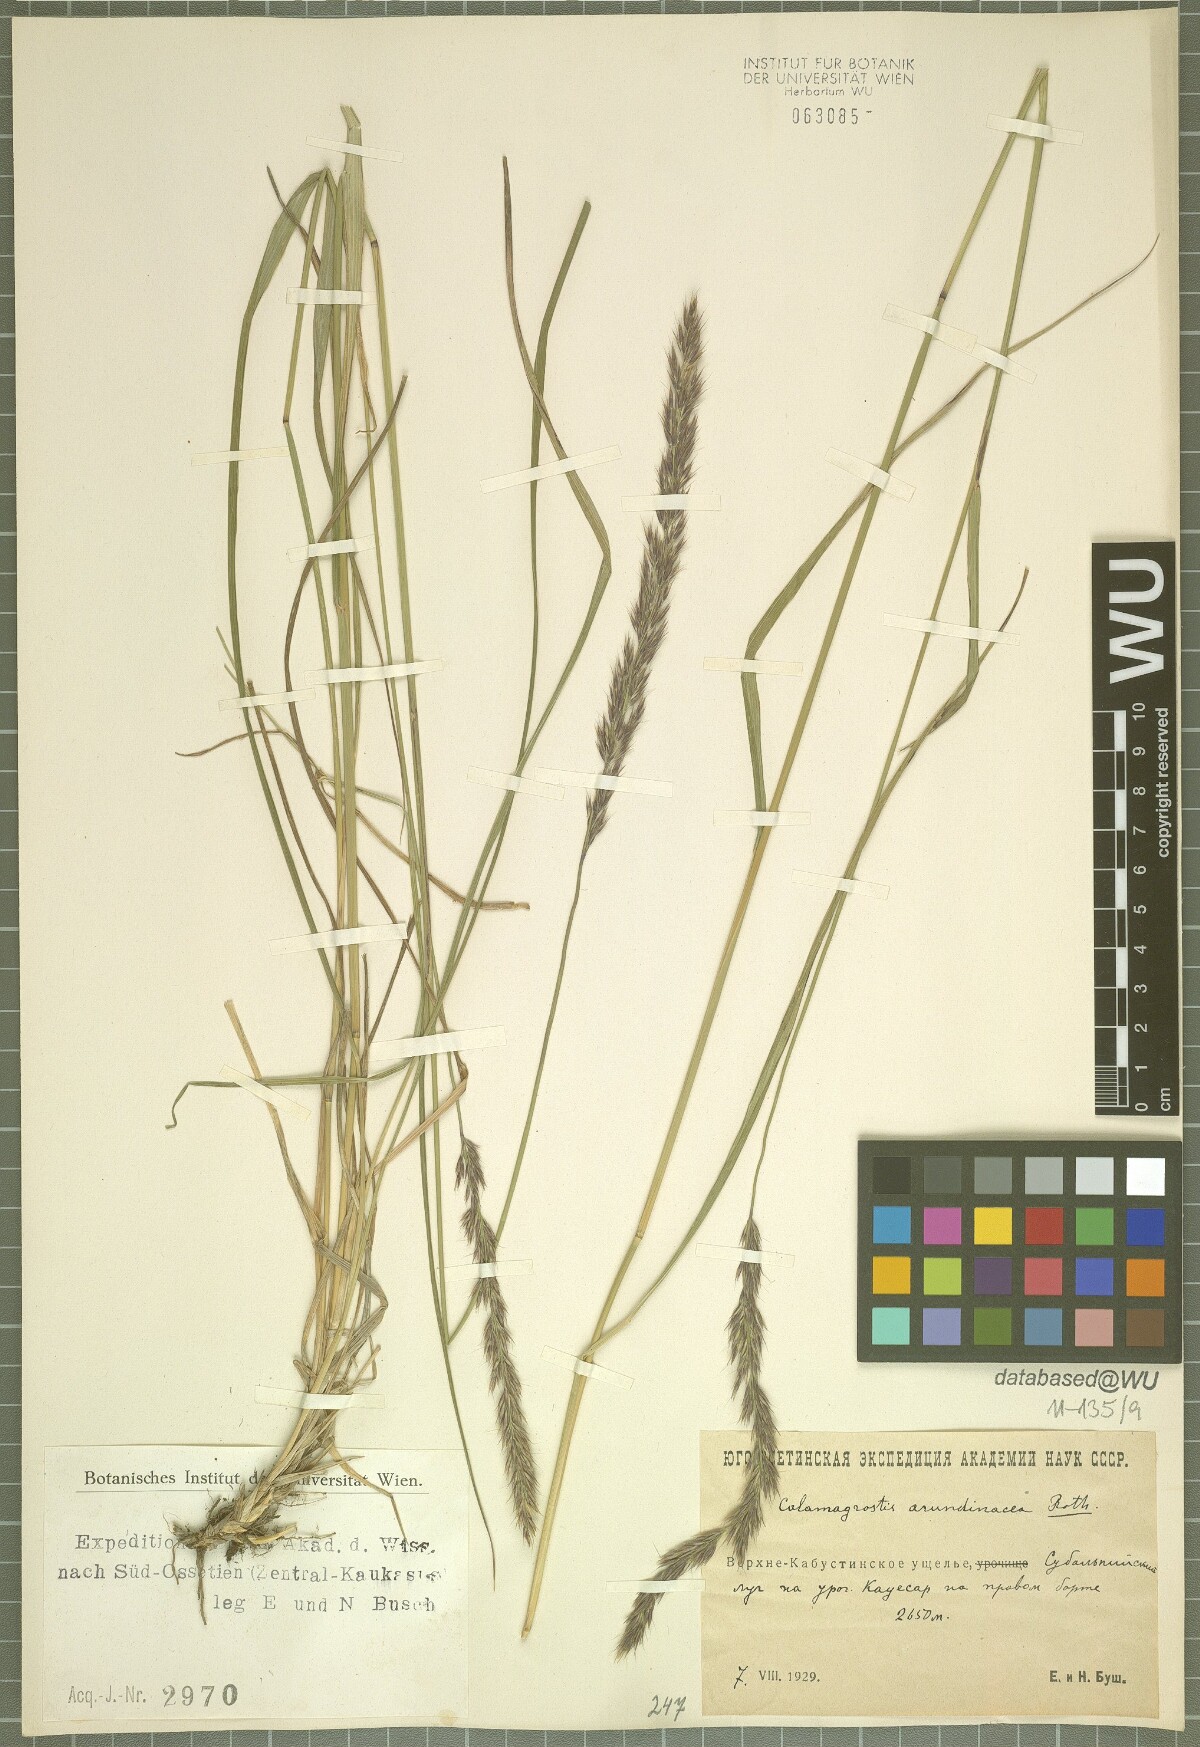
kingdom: Plantae
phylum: Tracheophyta
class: Liliopsida
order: Poales
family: Poaceae
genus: Calamagrostis
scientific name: Calamagrostis arundinacea
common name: Metskastik
